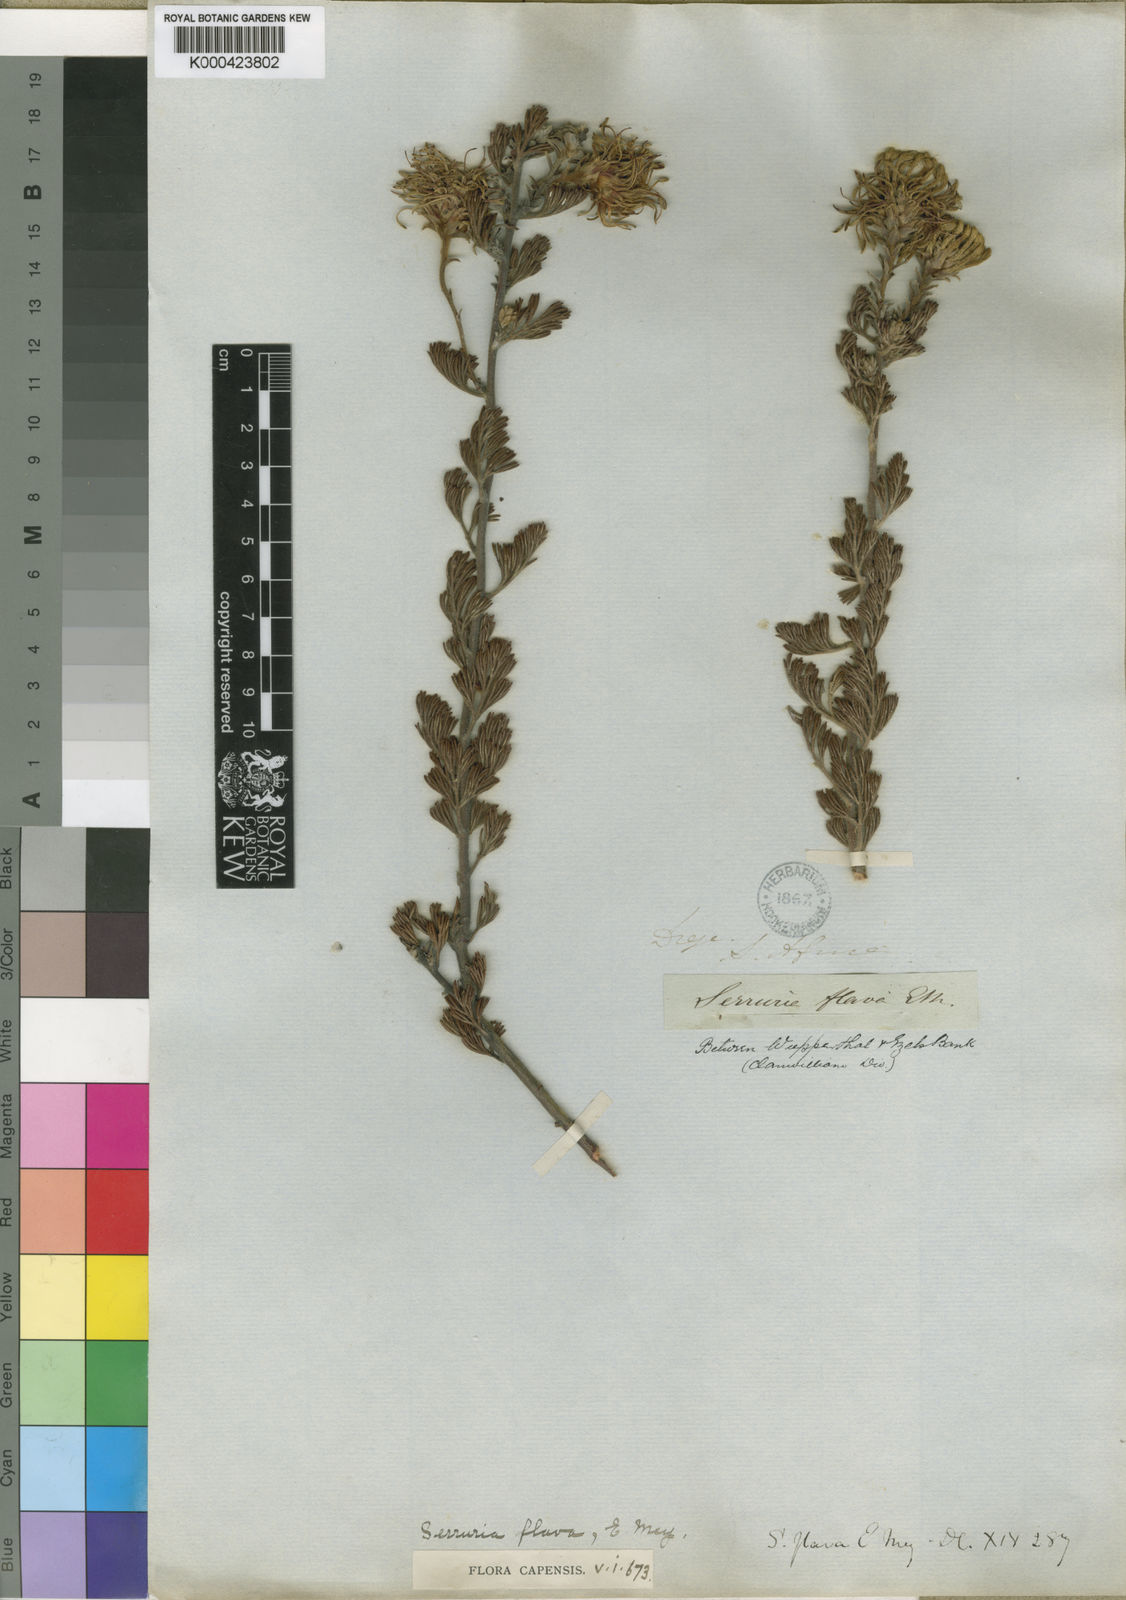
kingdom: Plantae
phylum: Tracheophyta
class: Magnoliopsida
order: Proteales
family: Proteaceae
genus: Serruria
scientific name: Serruria
